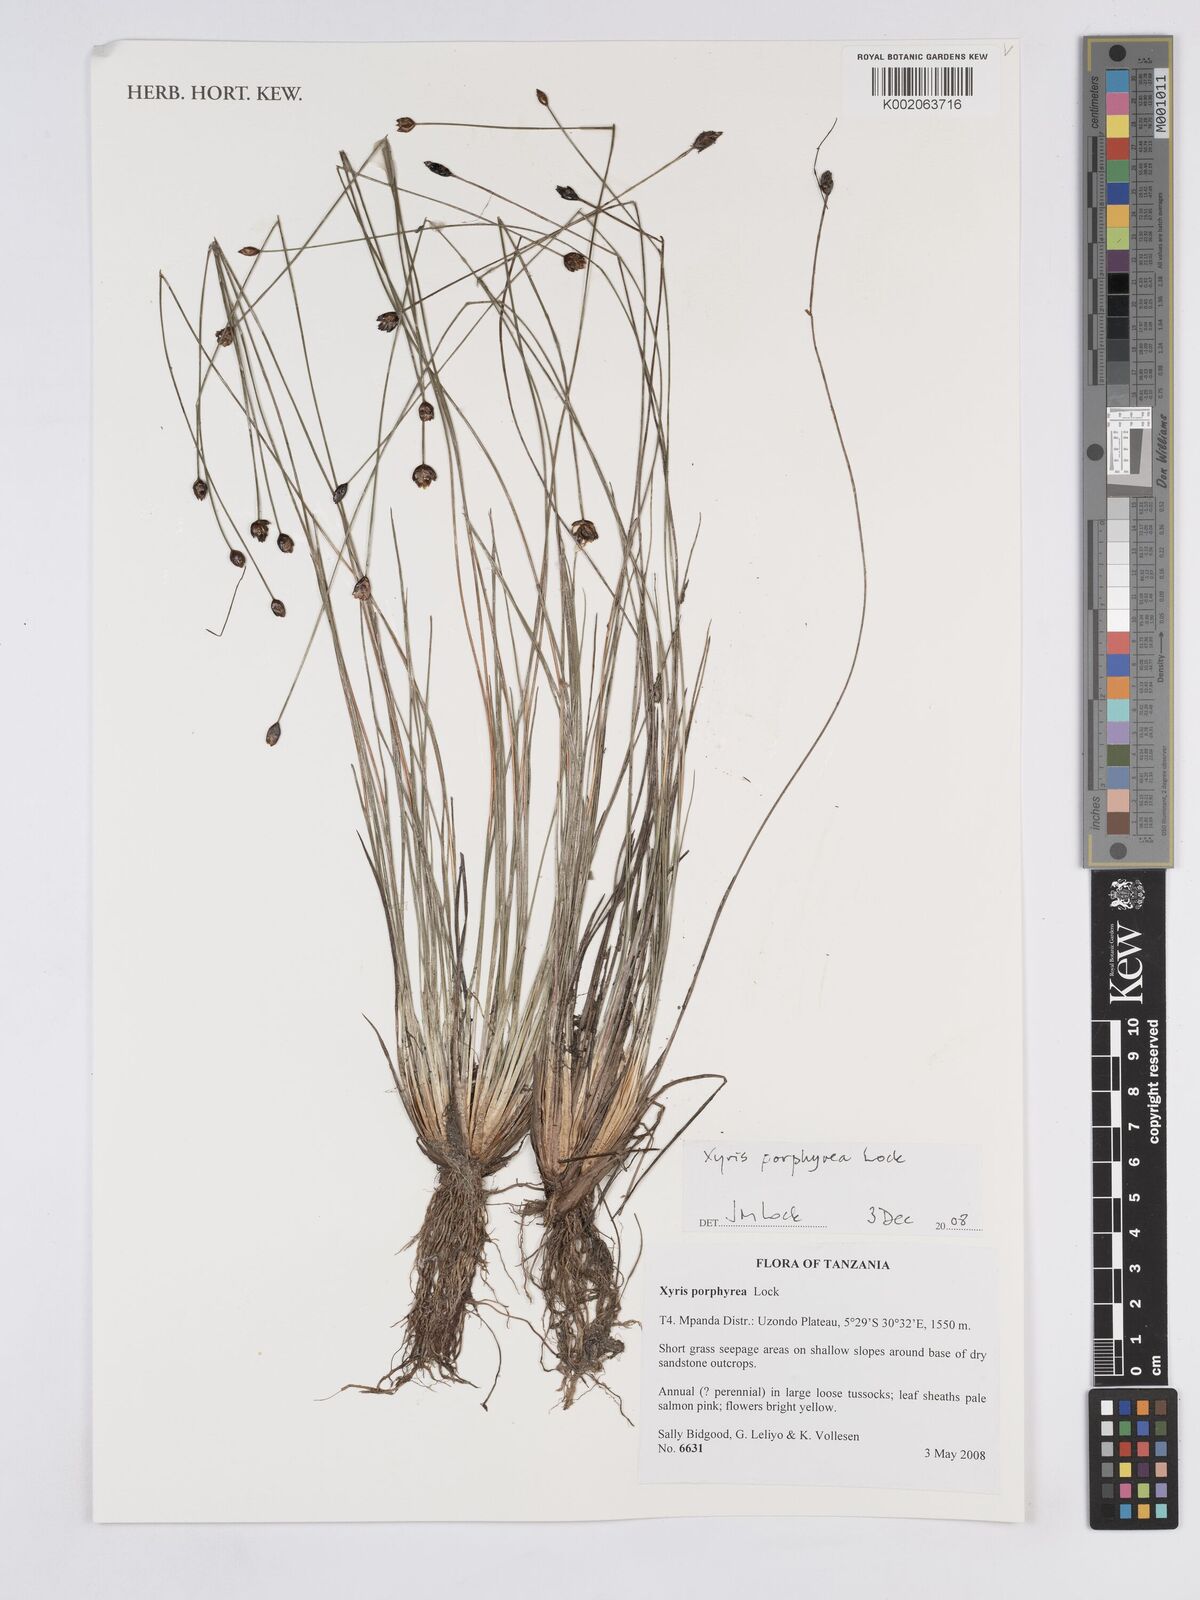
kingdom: Plantae
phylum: Tracheophyta
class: Liliopsida
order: Poales
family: Xyridaceae
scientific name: Xyridaceae
